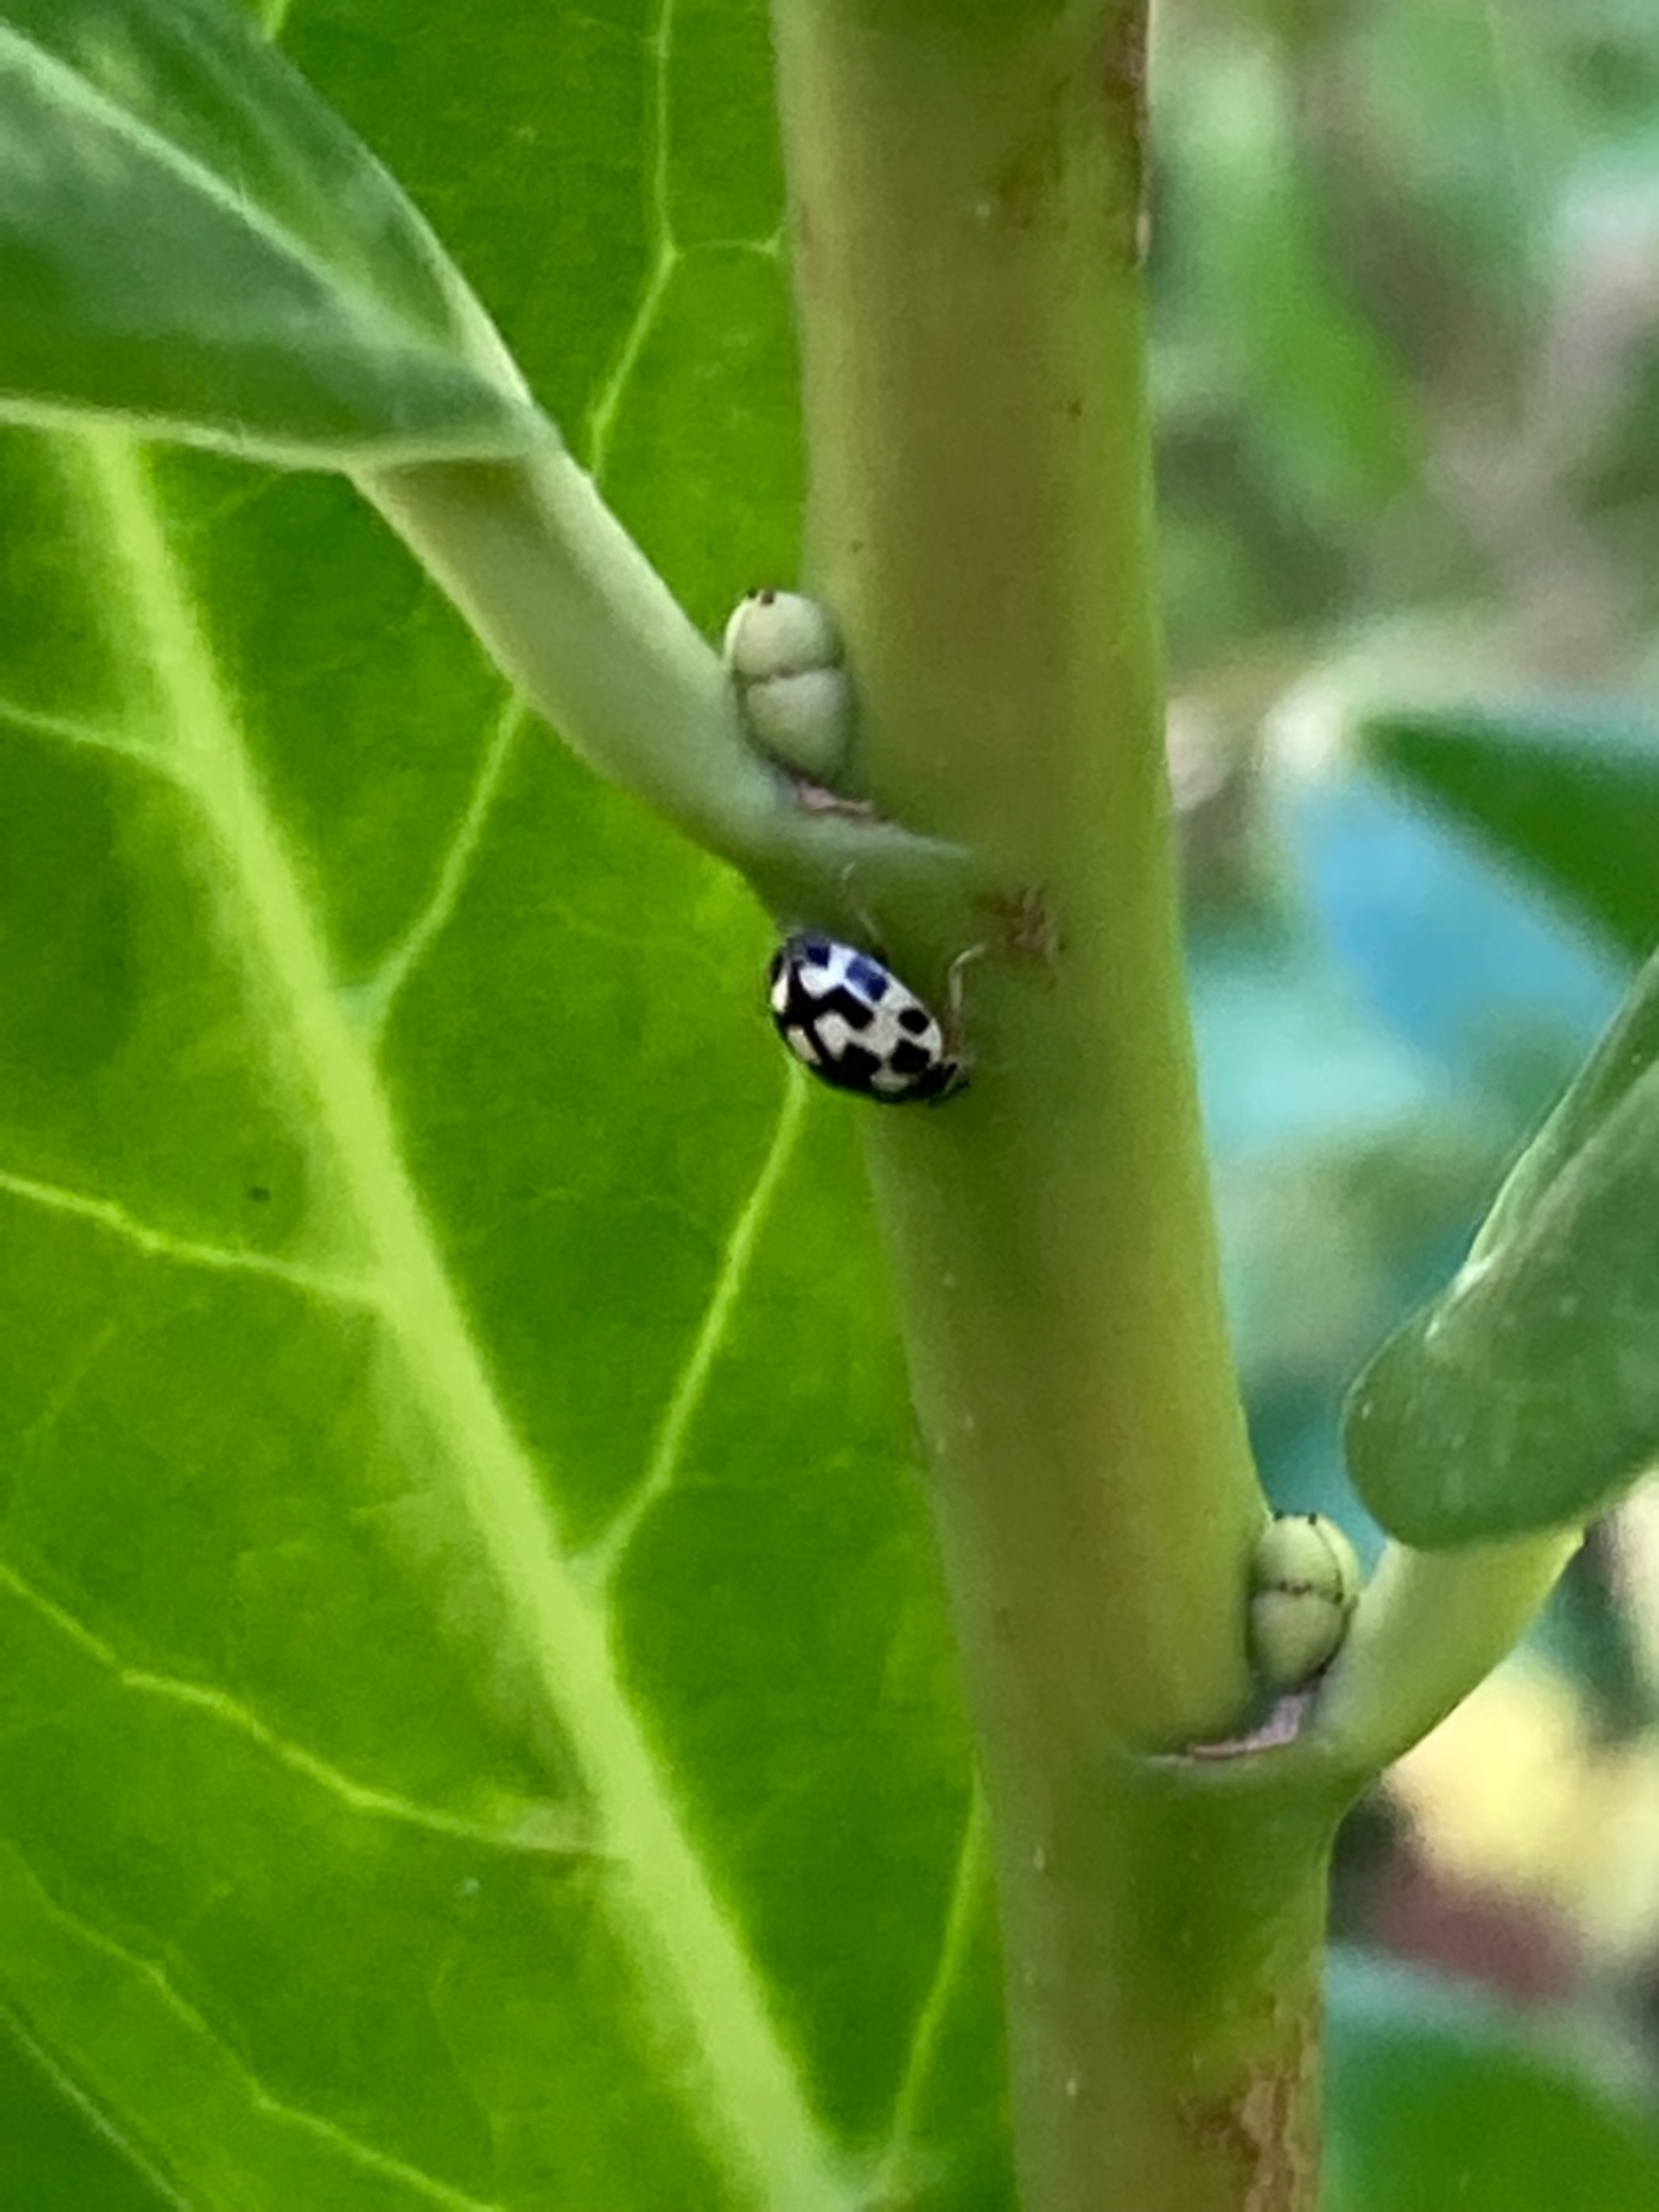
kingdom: Animalia
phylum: Arthropoda
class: Insecta
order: Coleoptera
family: Coccinellidae
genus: Propylaea
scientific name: Propylaea quatuordecimpunctata
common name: Skakbræt
